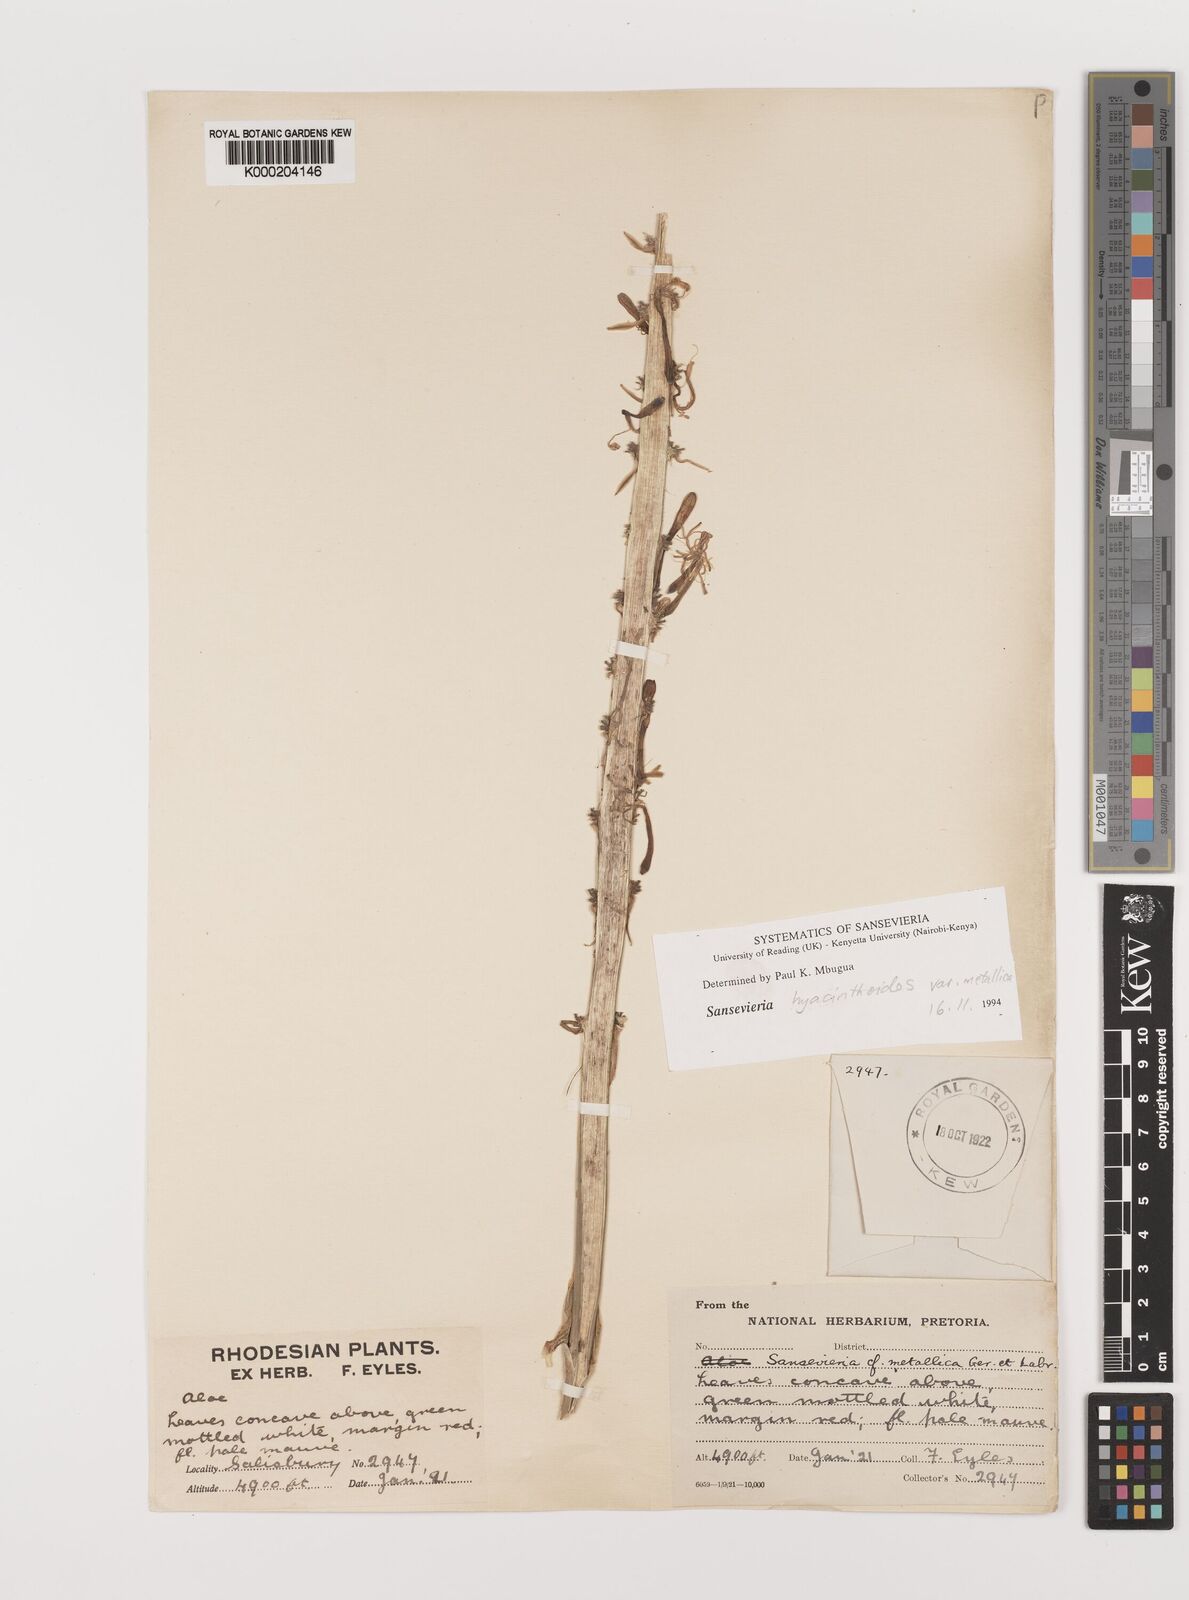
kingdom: Plantae
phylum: Tracheophyta
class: Liliopsida
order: Asparagales
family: Asparagaceae
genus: Dracaena
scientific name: Dracaena
